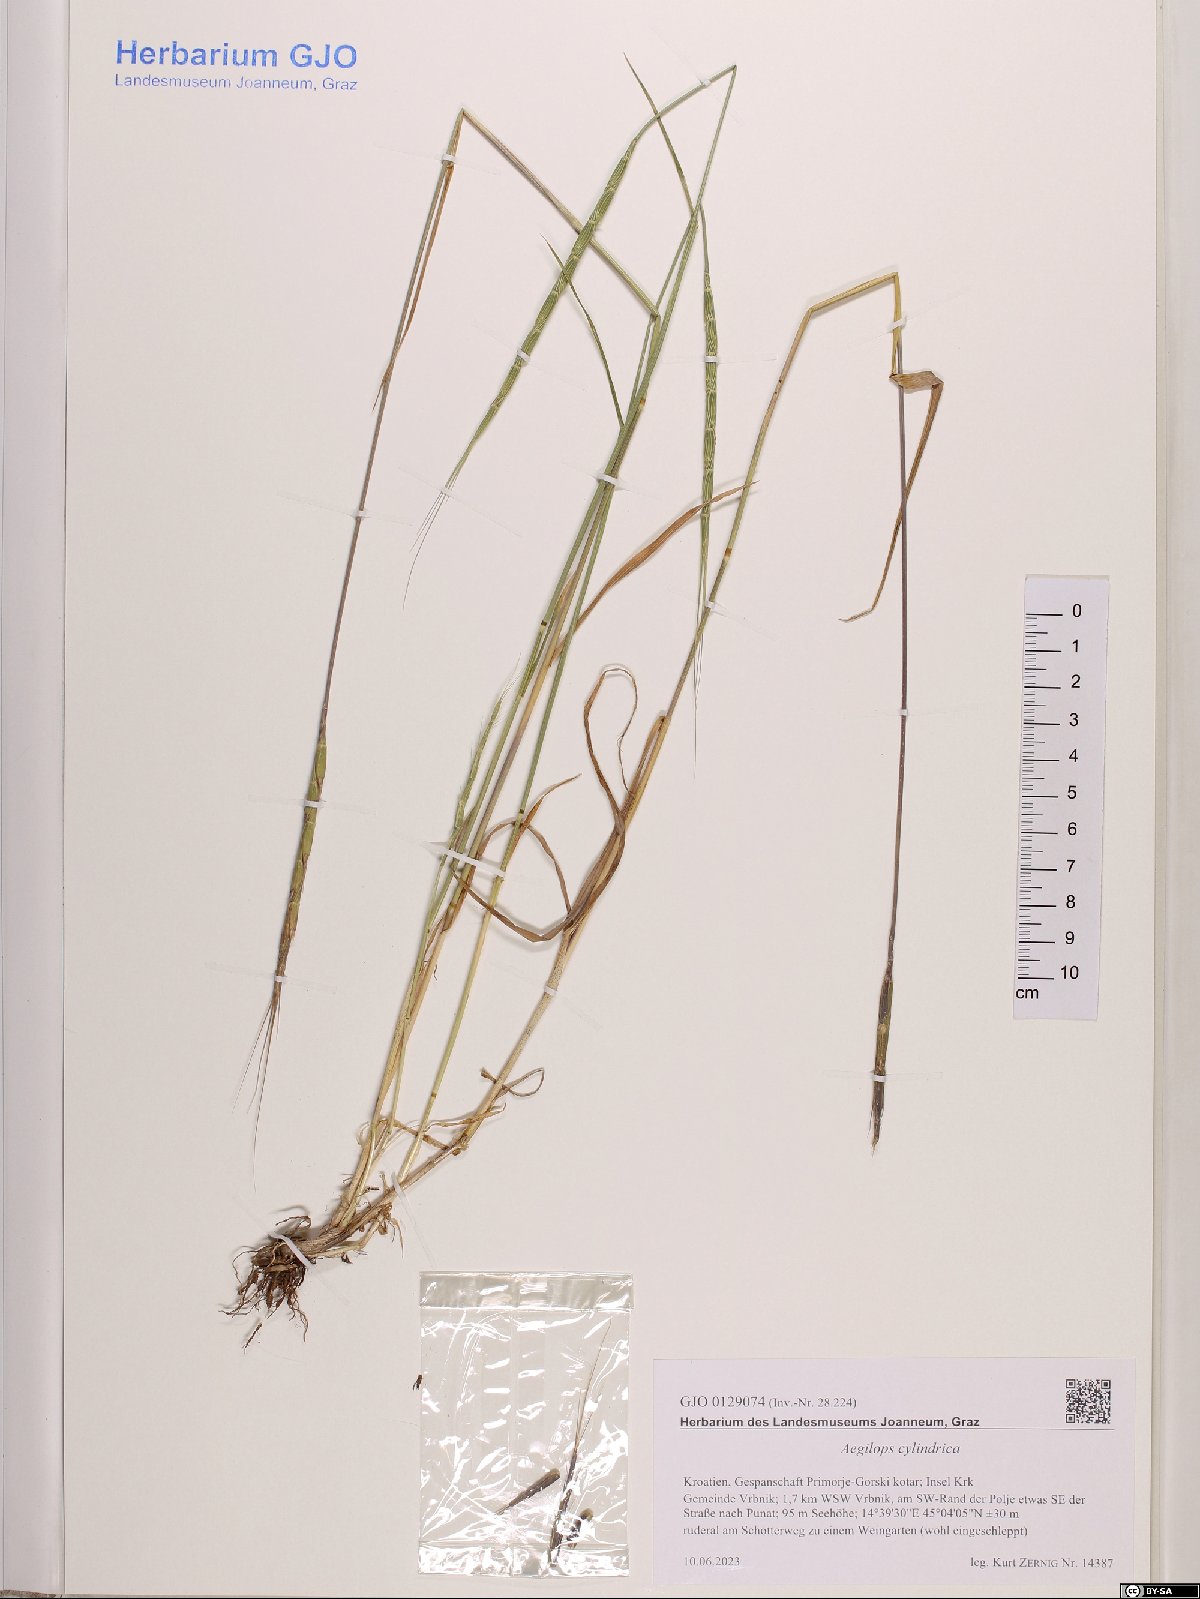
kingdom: Plantae
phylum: Tracheophyta
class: Liliopsida
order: Poales
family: Poaceae
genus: Aegilops
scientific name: Aegilops cylindrica
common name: Jointed goatgrass
